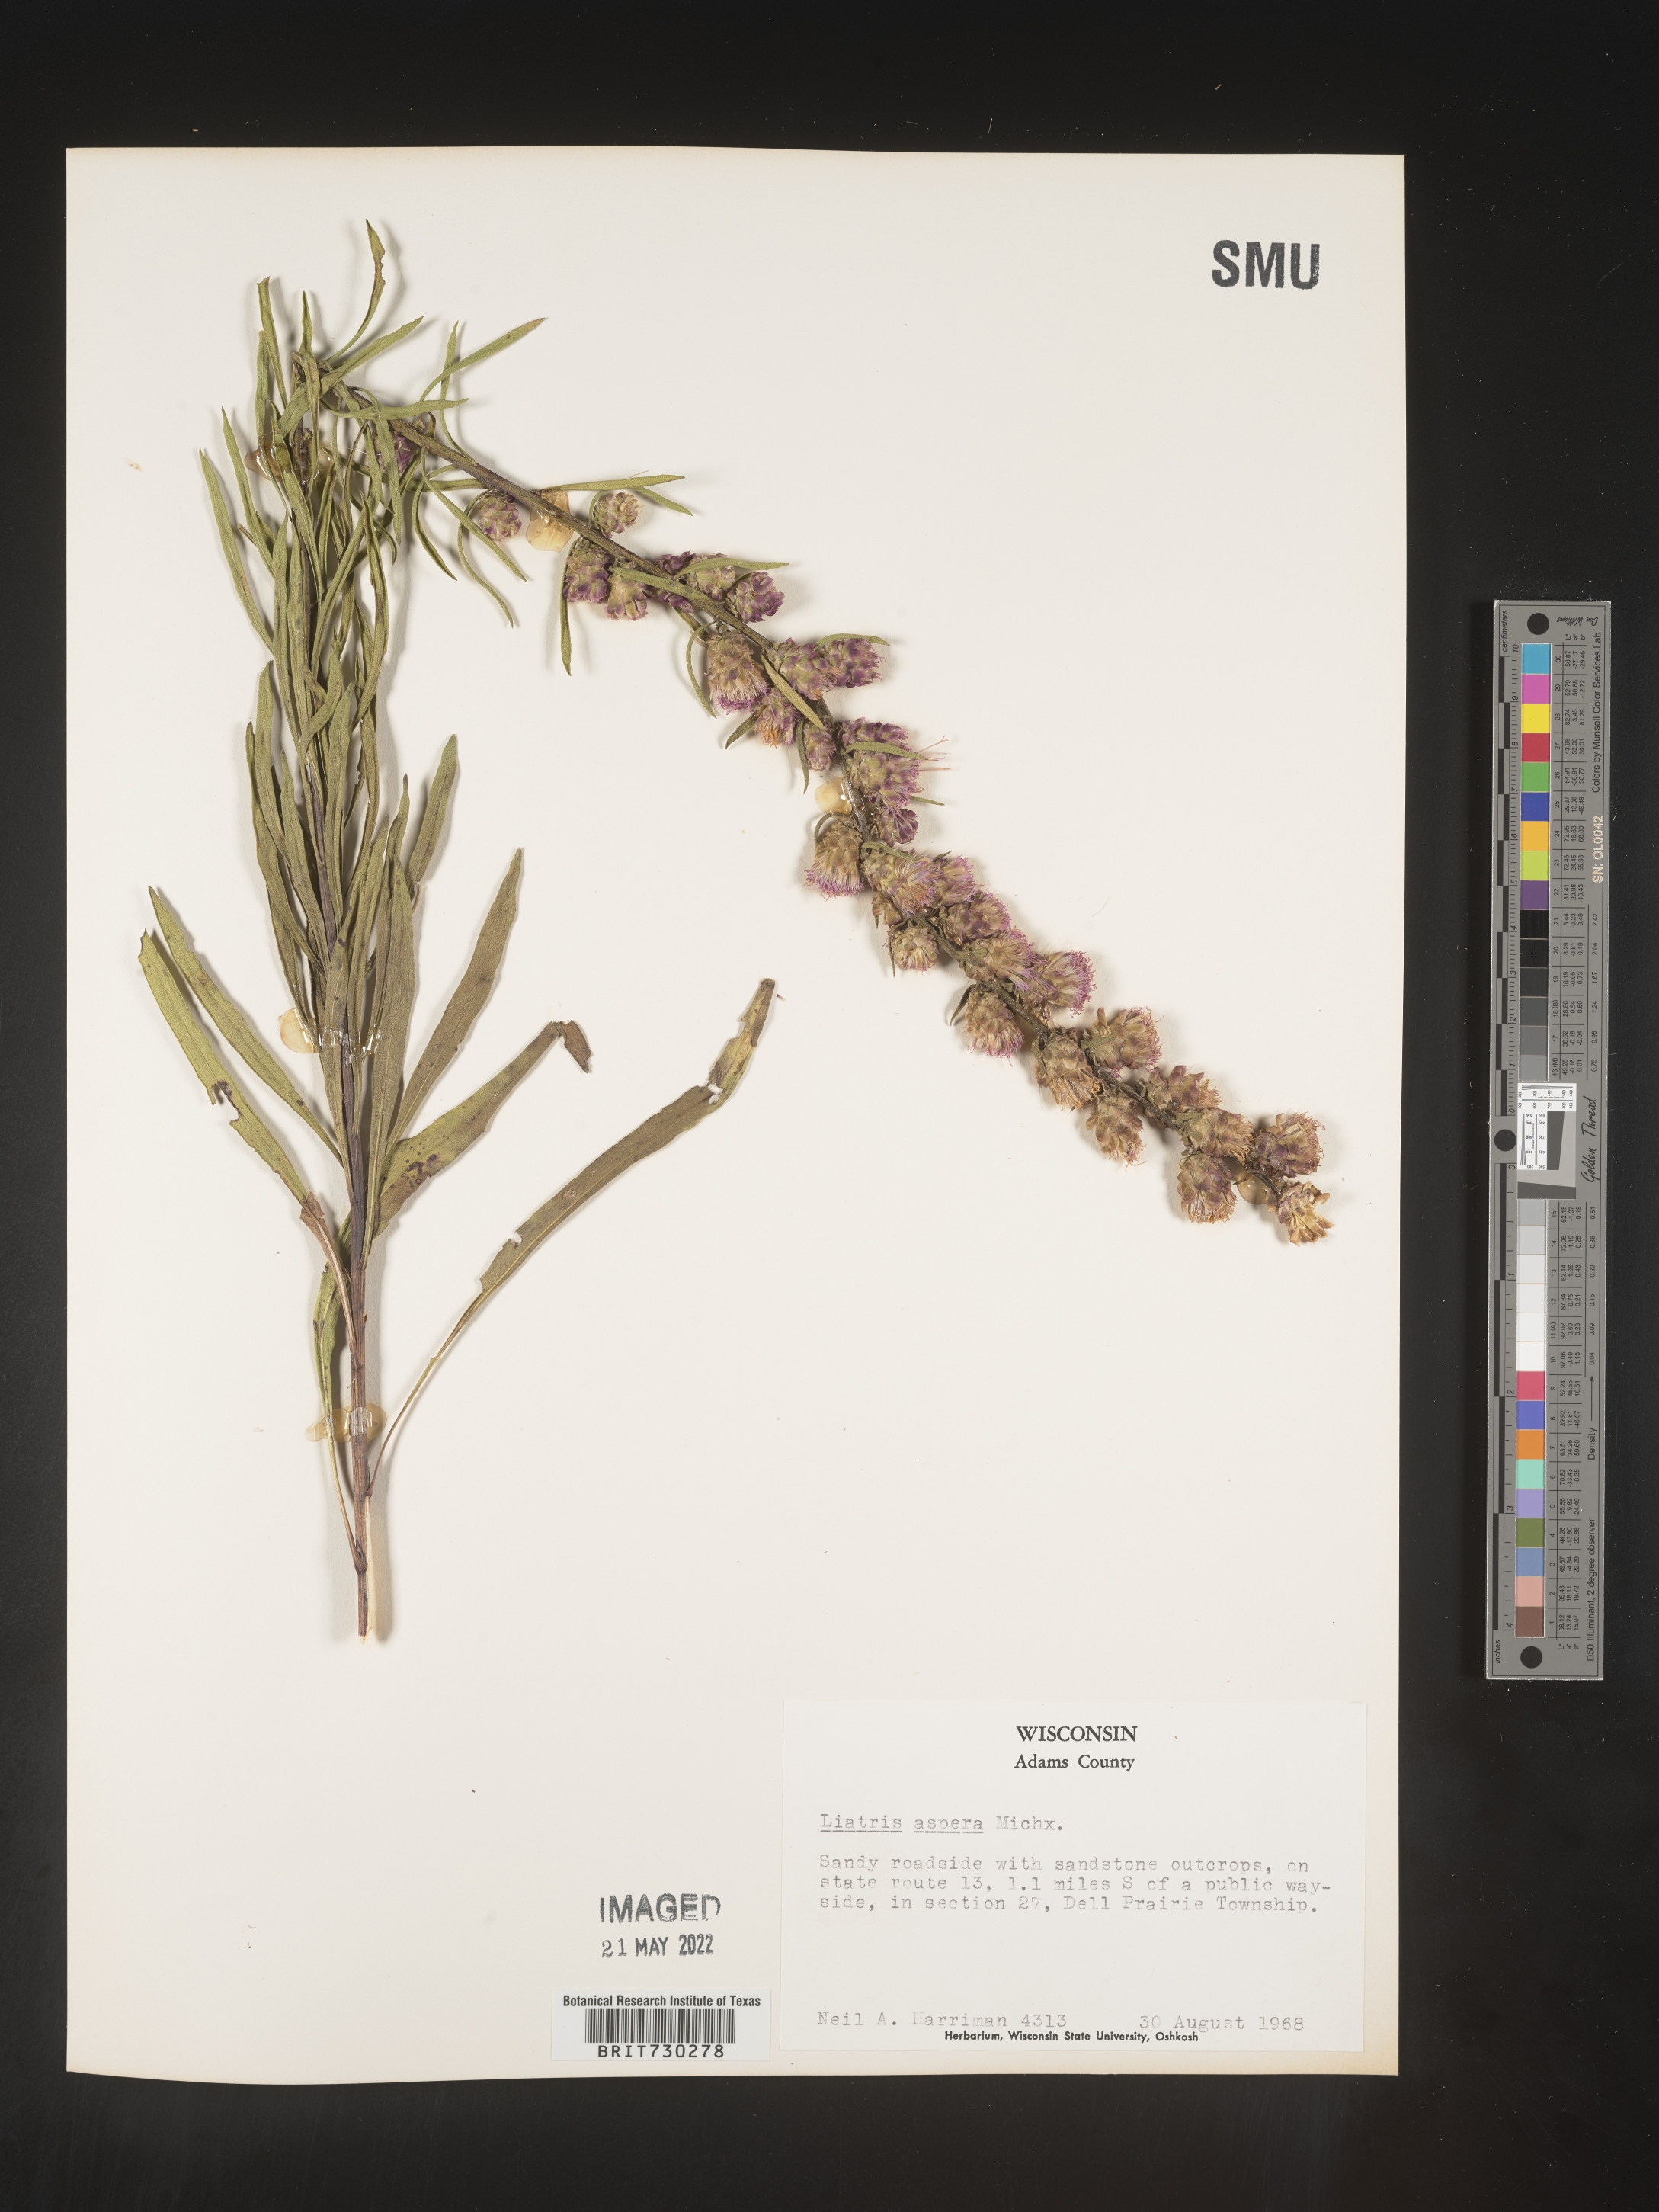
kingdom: Plantae
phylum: Tracheophyta
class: Magnoliopsida
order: Asterales
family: Asteraceae
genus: Liatris
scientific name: Liatris aspera
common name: Lacerate blazing-star
